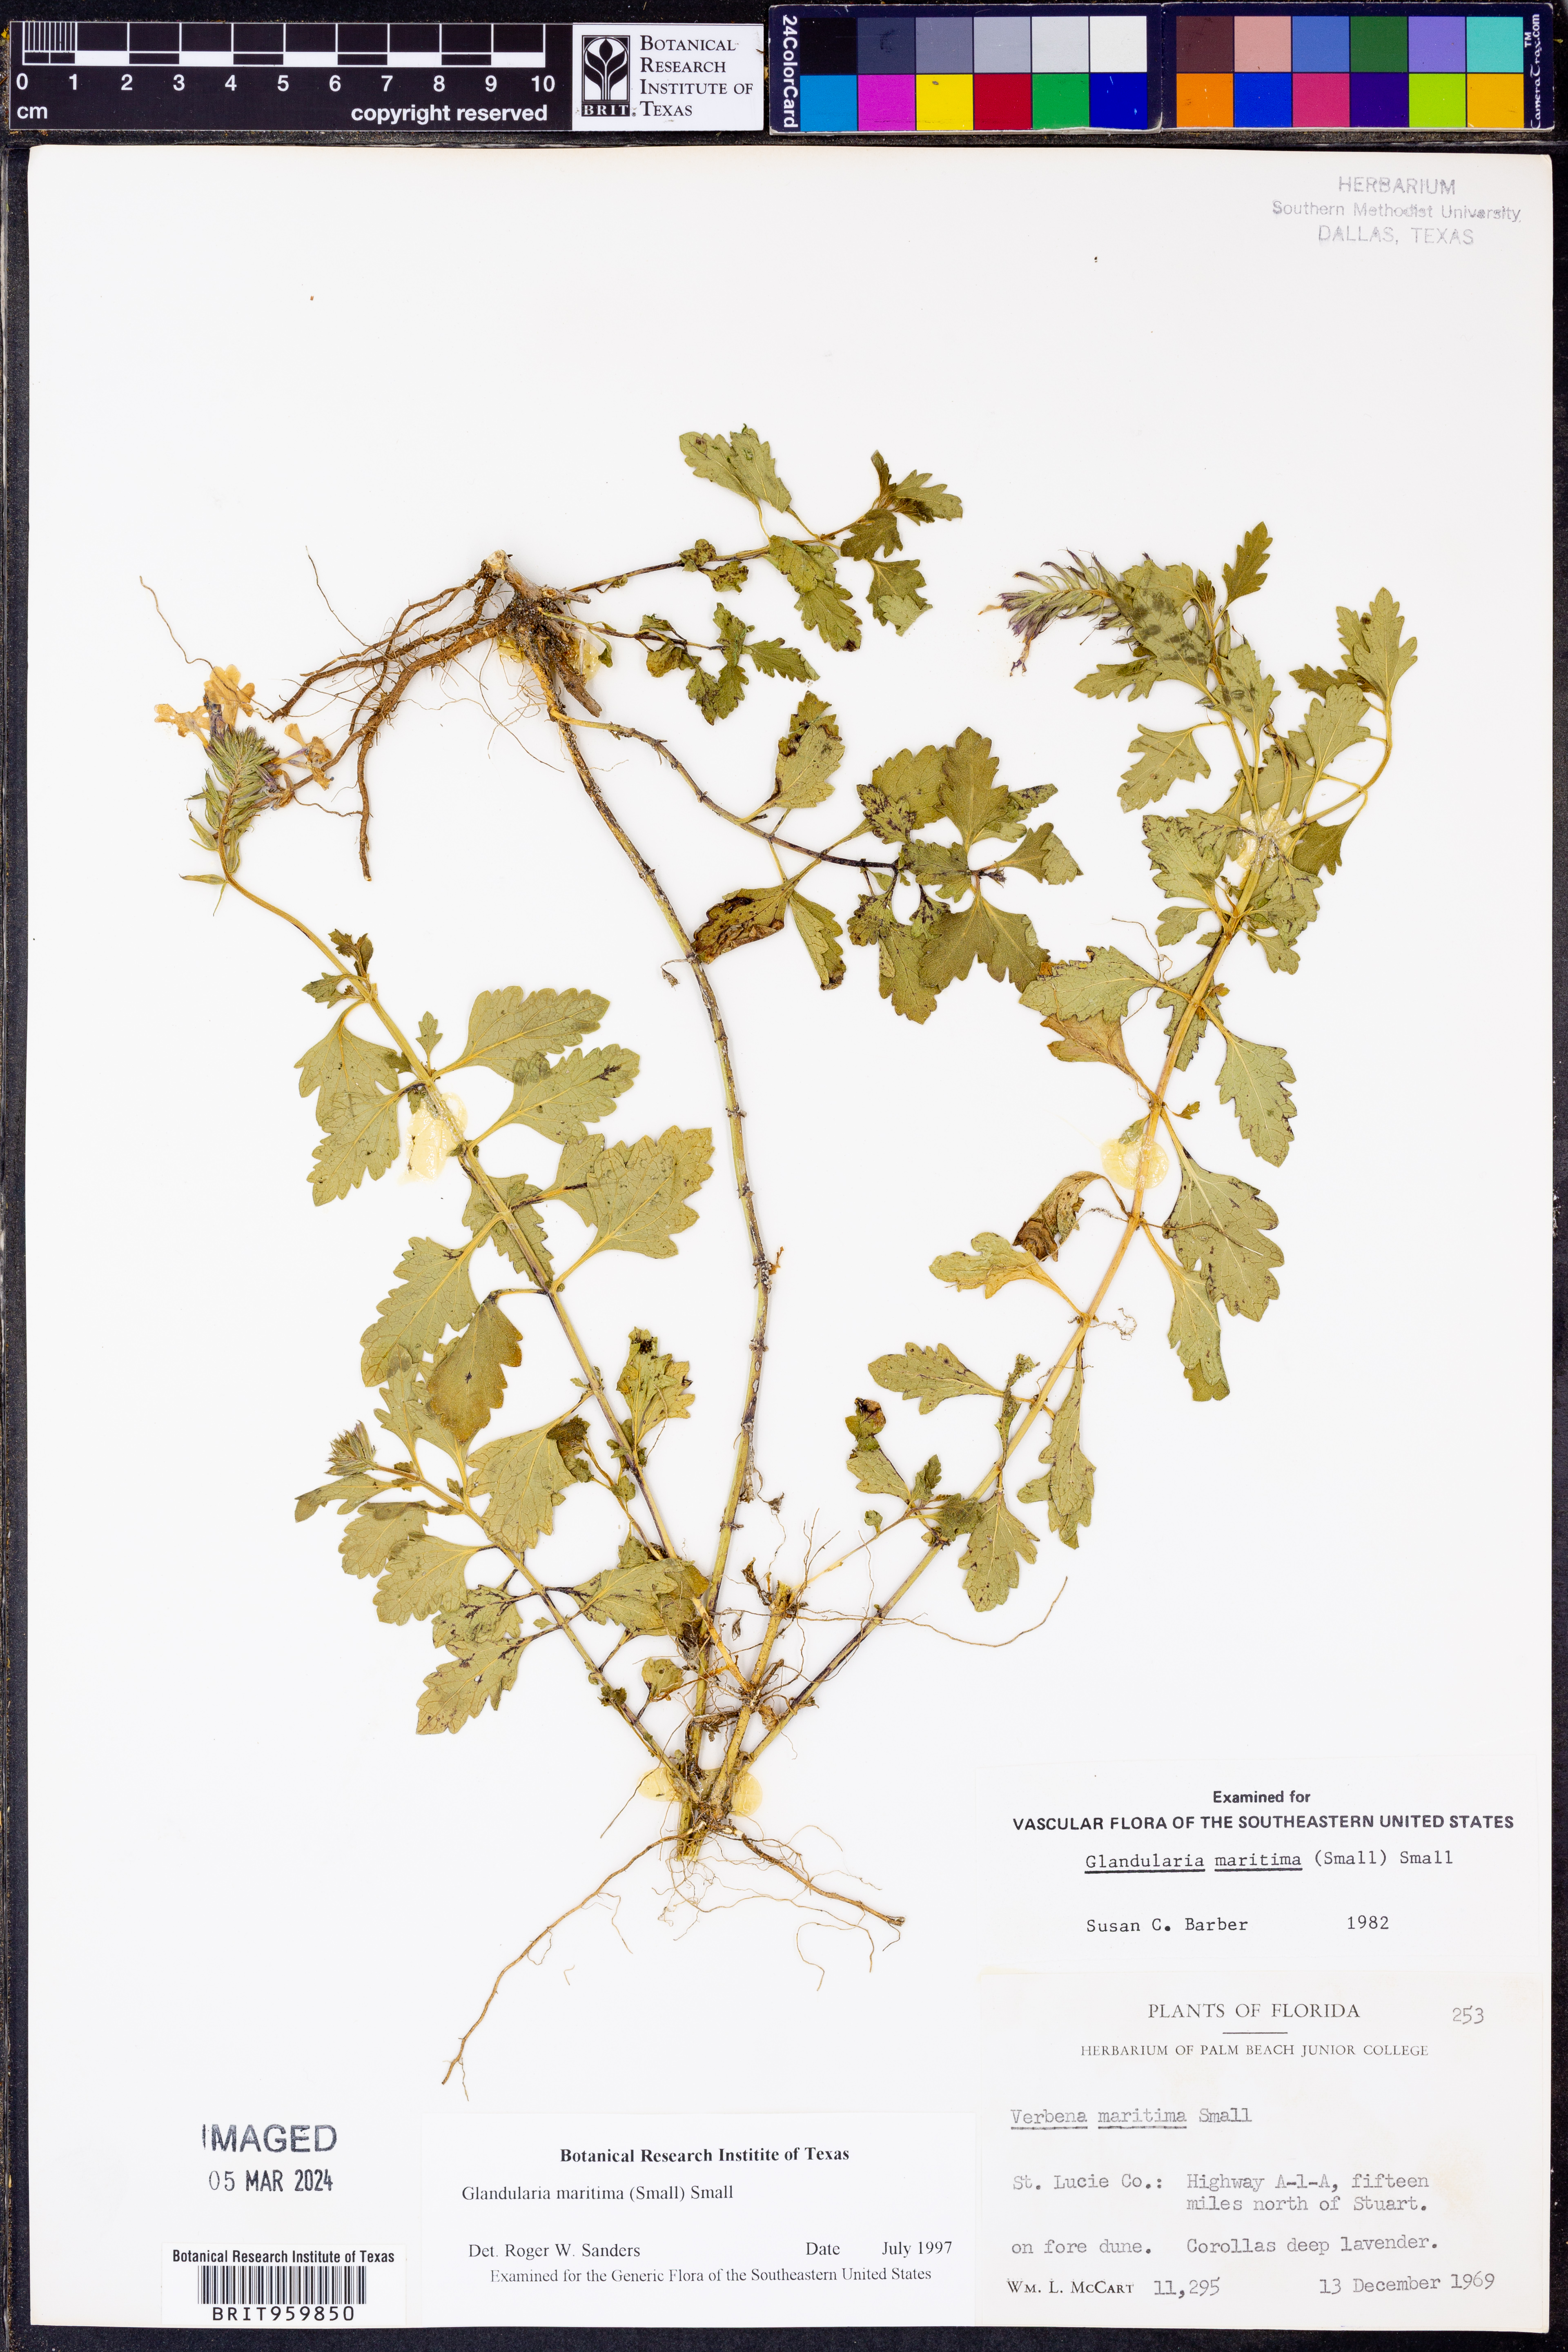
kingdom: Plantae
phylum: Tracheophyta
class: Magnoliopsida
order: Lamiales
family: Verbenaceae
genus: Verbena
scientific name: Verbena maritima
